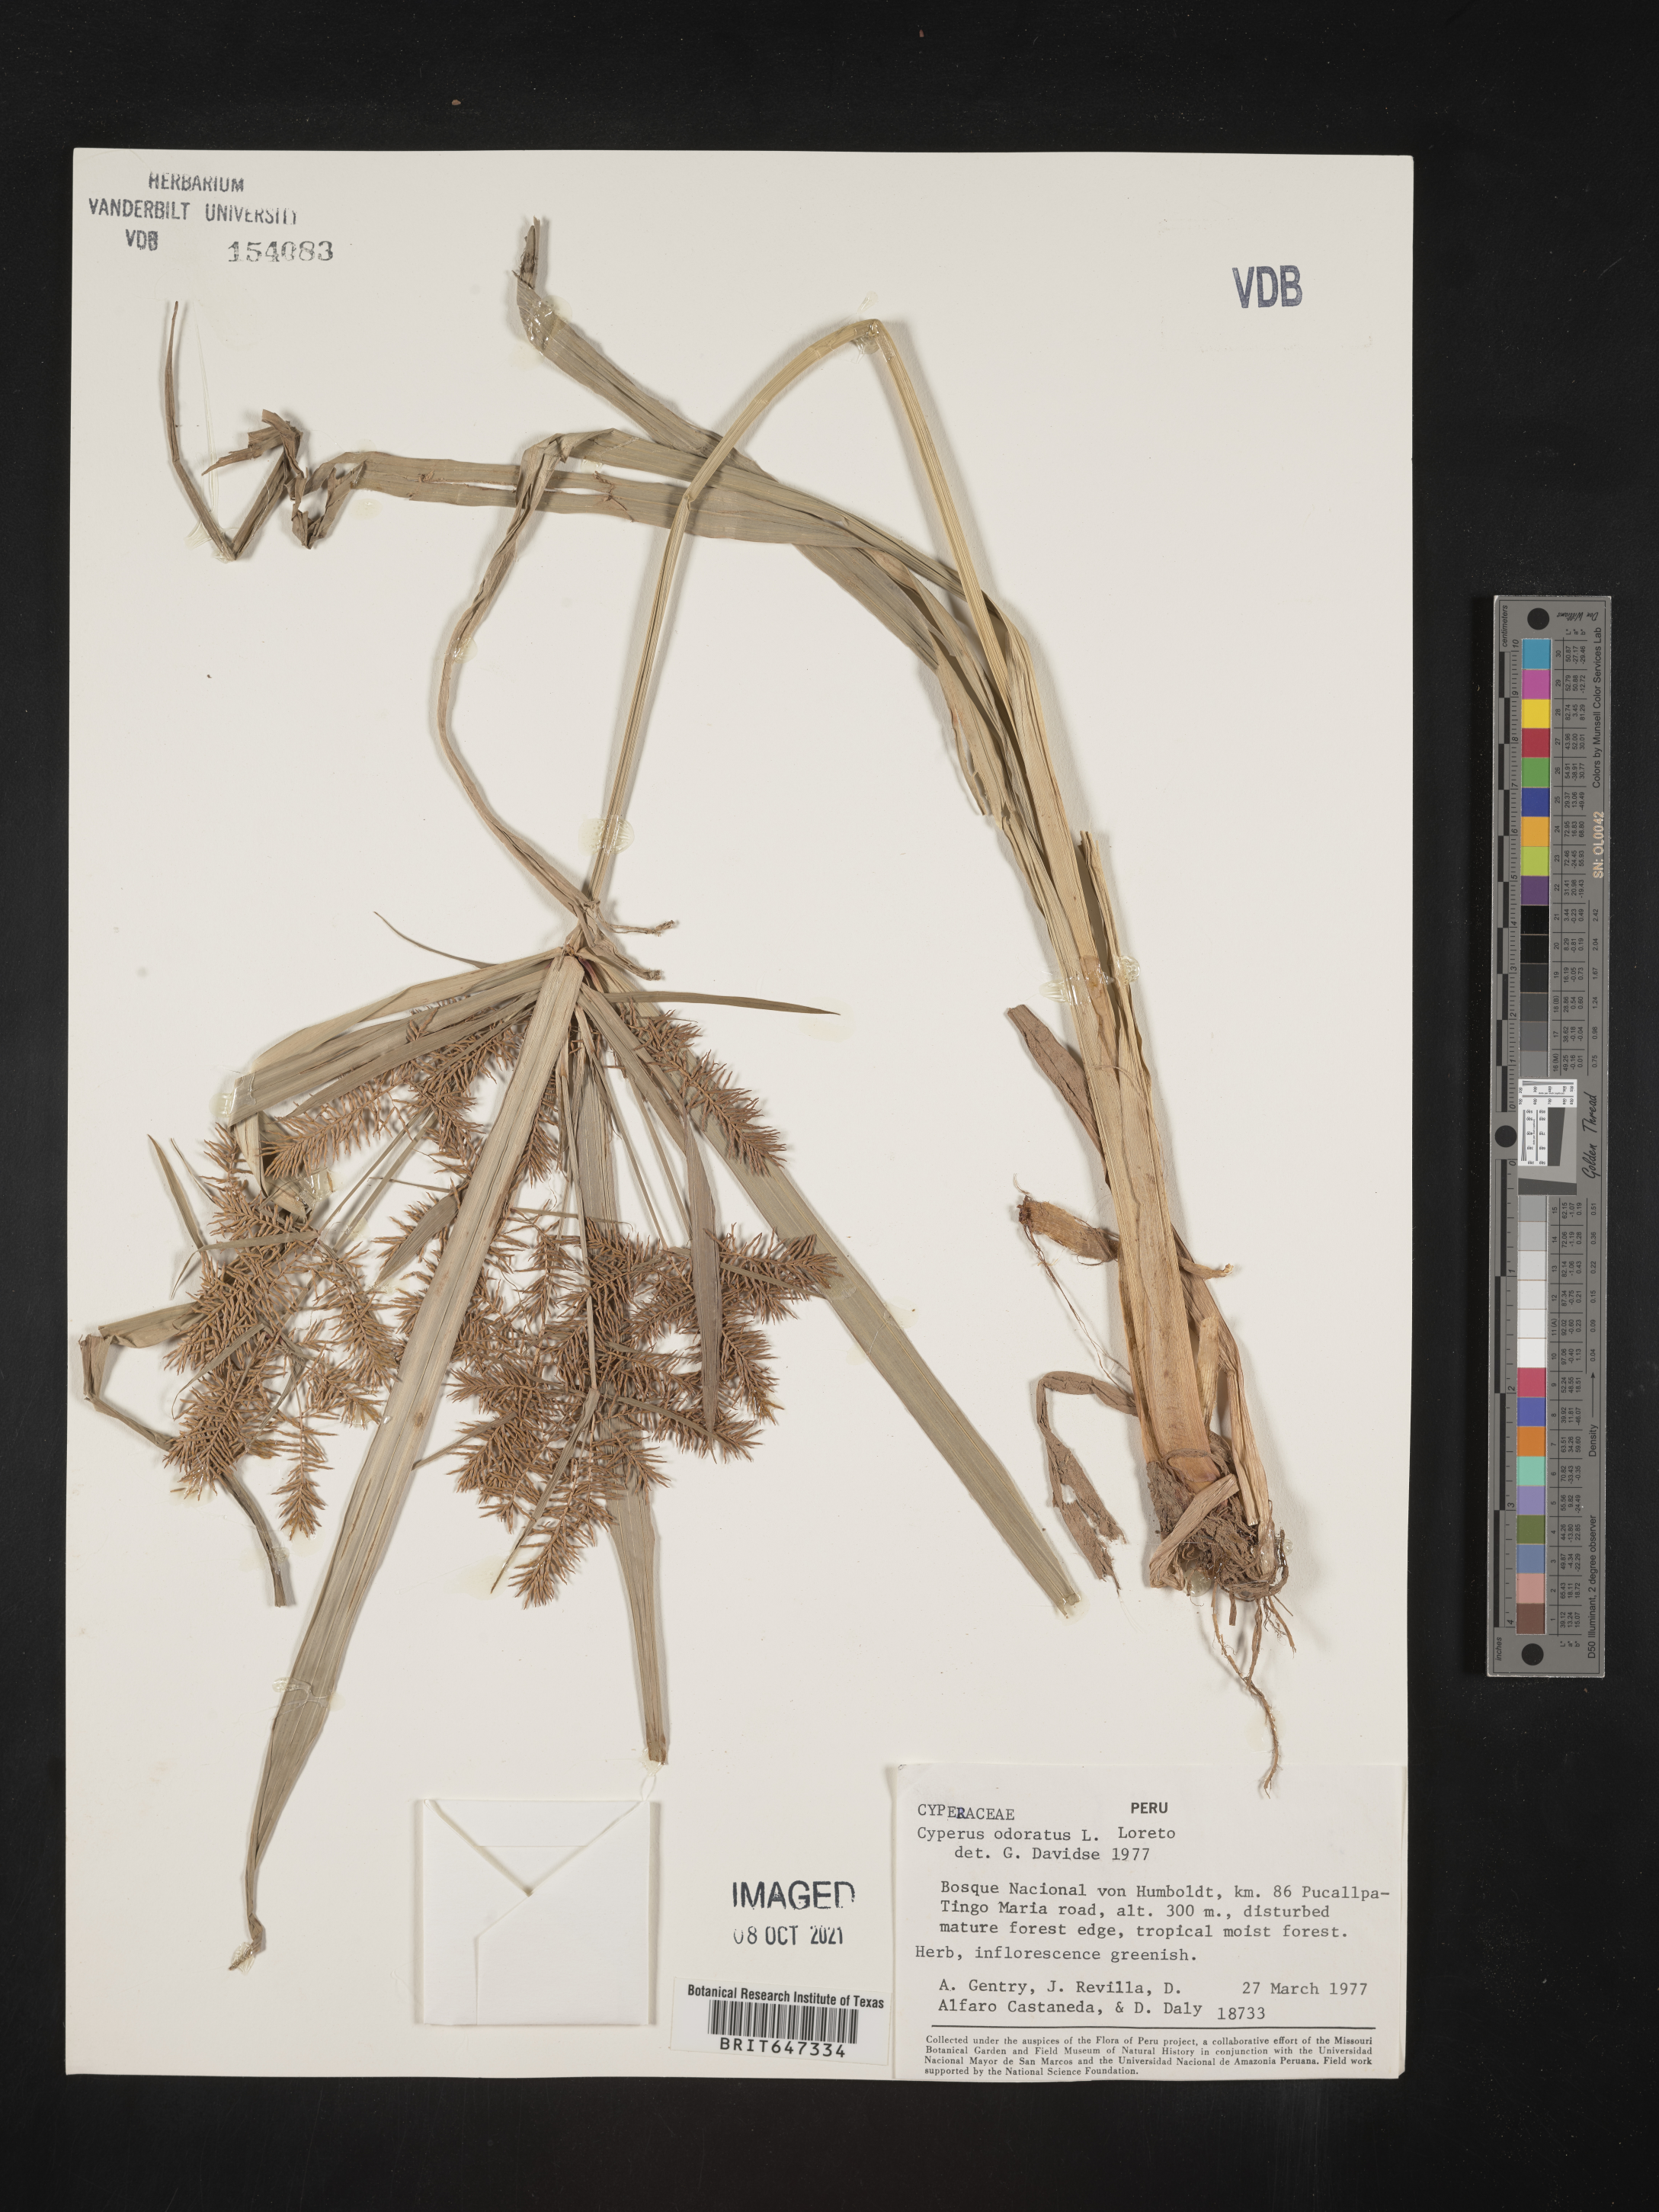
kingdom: Plantae
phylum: Tracheophyta
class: Liliopsida
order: Poales
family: Cyperaceae
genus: Cyperus
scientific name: Cyperus odoratus
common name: Fragrant flatsedge
